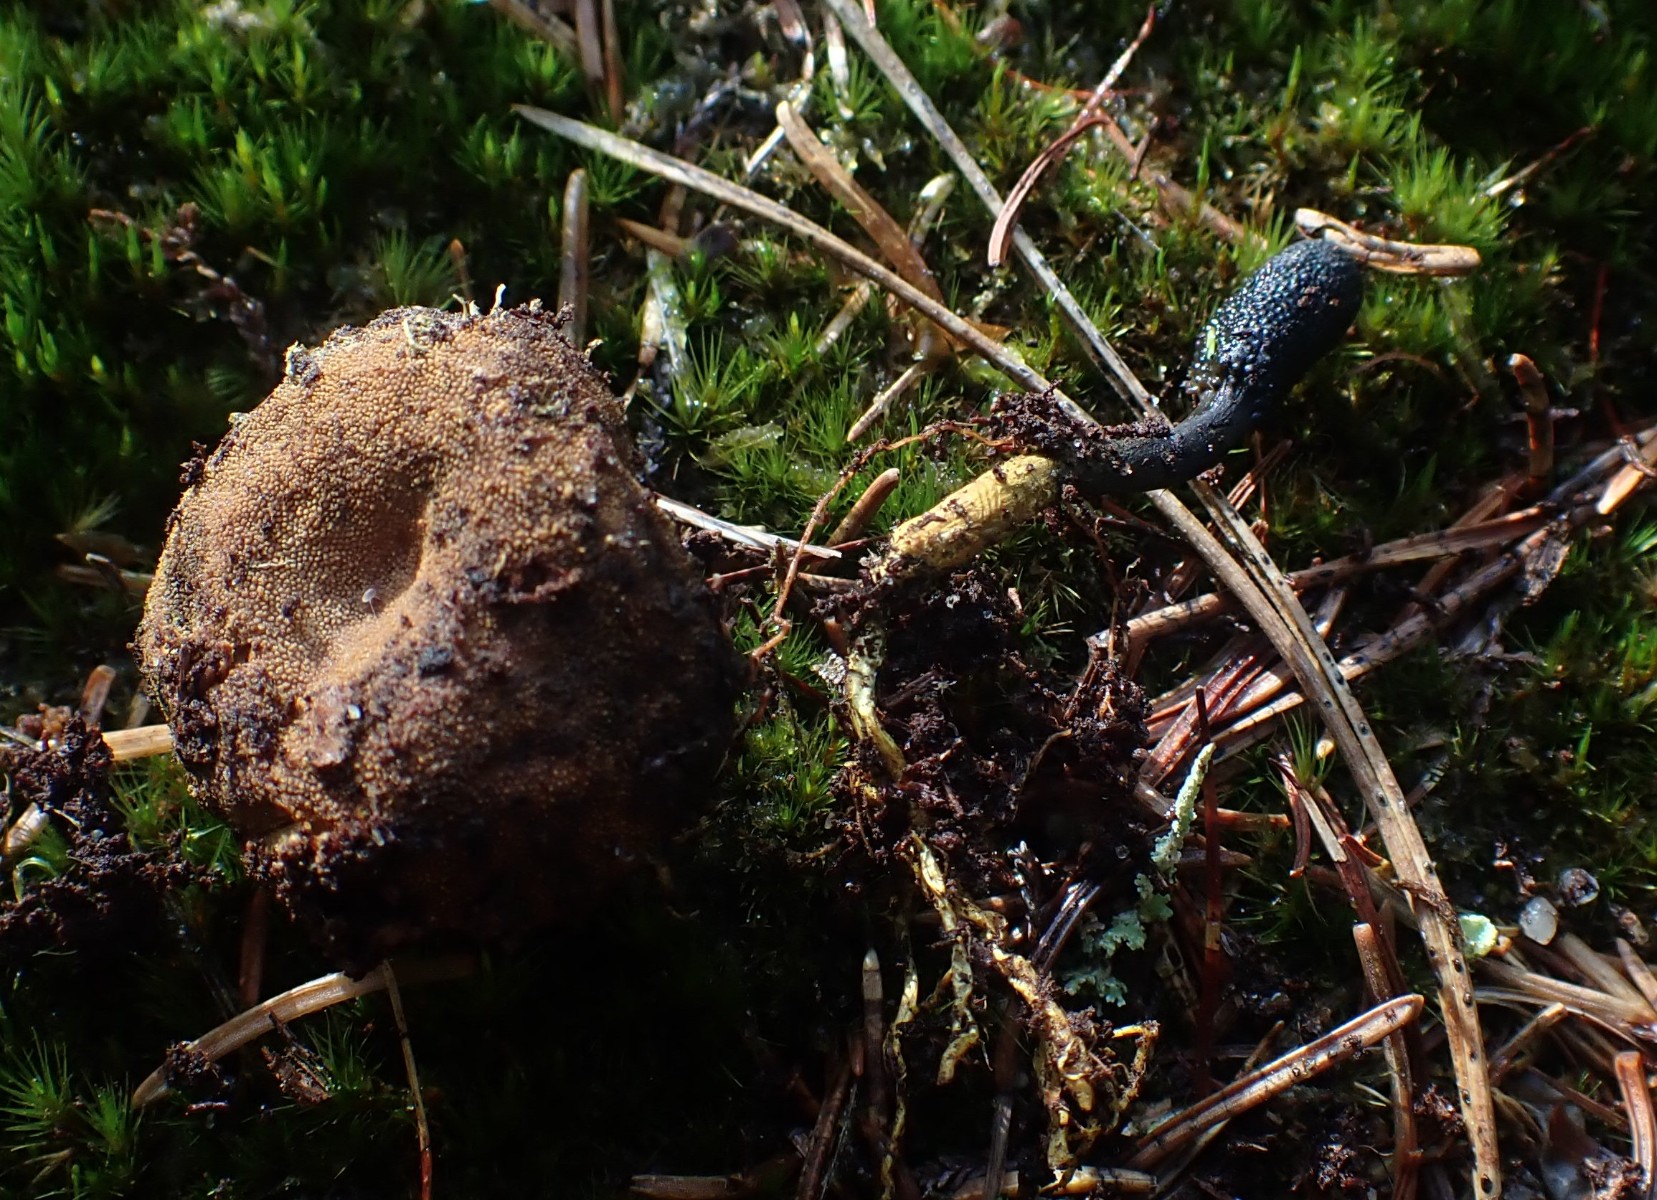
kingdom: Fungi
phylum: Ascomycota
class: Sordariomycetes
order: Hypocreales
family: Ophiocordycipitaceae
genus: Tolypocladium
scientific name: Tolypocladium ophioglossoides
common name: slank snyltekølle
